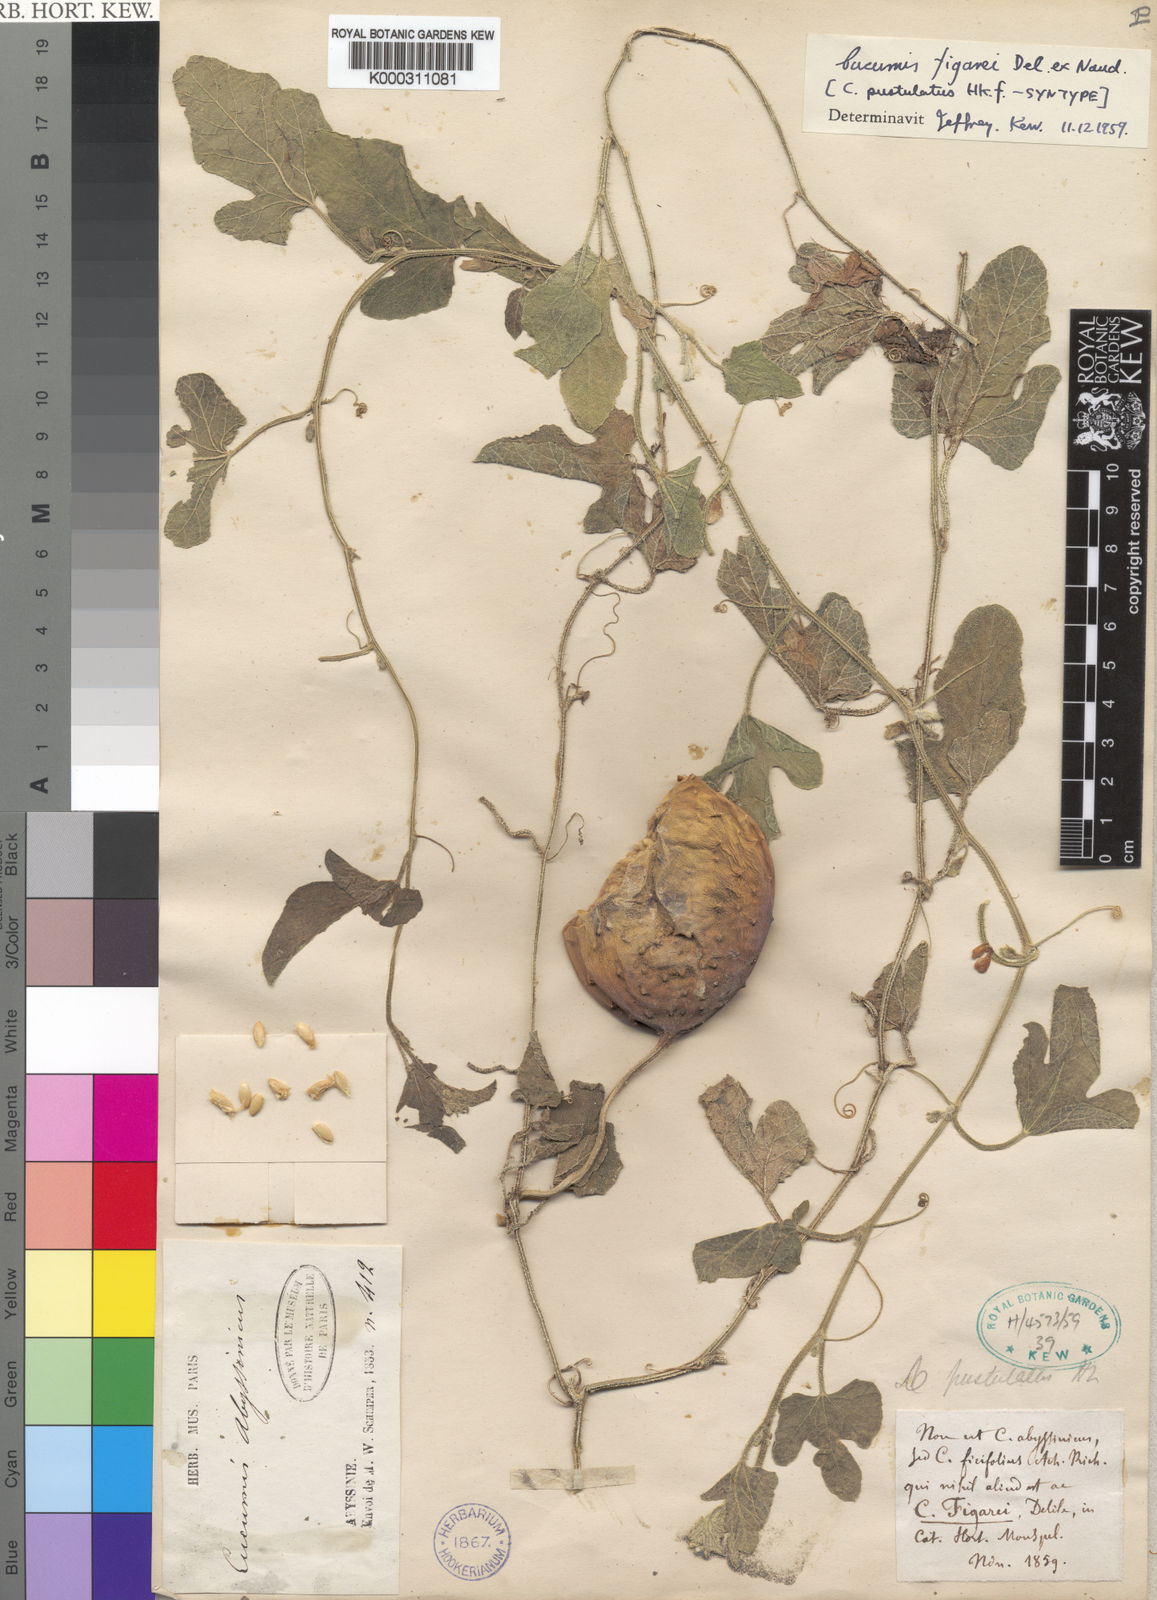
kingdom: Plantae
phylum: Tracheophyta
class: Magnoliopsida
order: Cucurbitales
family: Cucurbitaceae
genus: Cucumis
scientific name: Cucumis pustulatus
